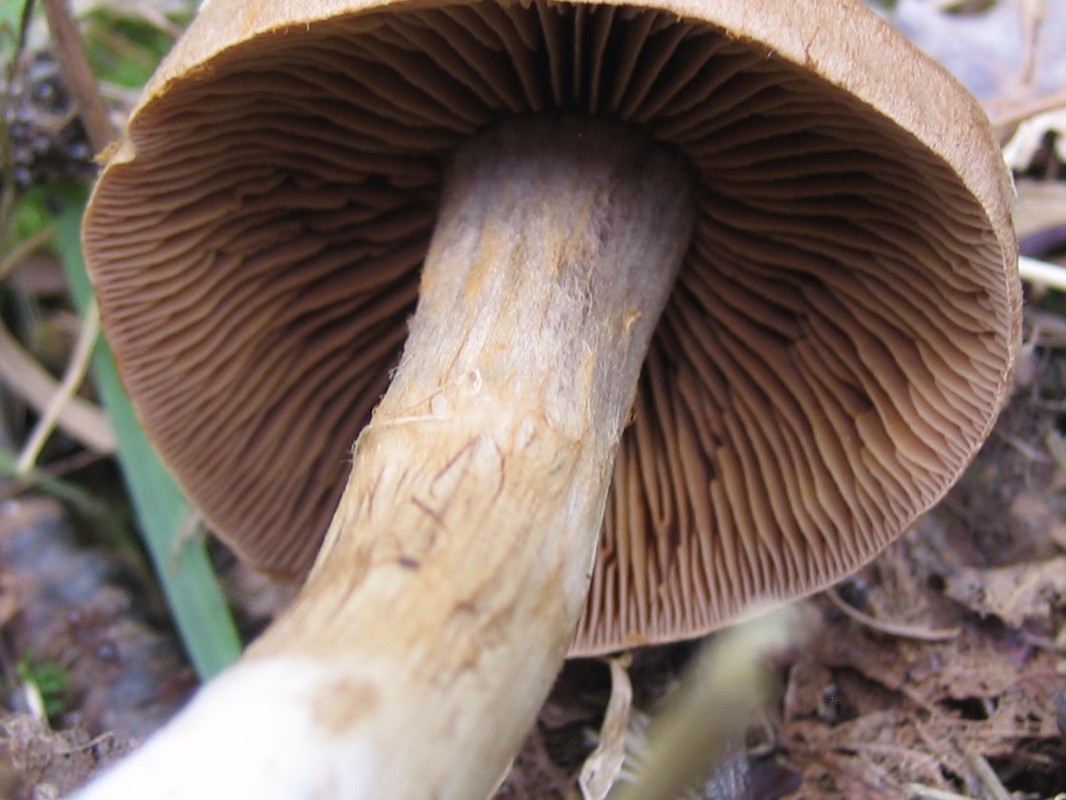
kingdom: Fungi
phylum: Basidiomycota
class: Agaricomycetes
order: Agaricales
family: Cortinariaceae
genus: Cortinarius
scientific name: Cortinarius
